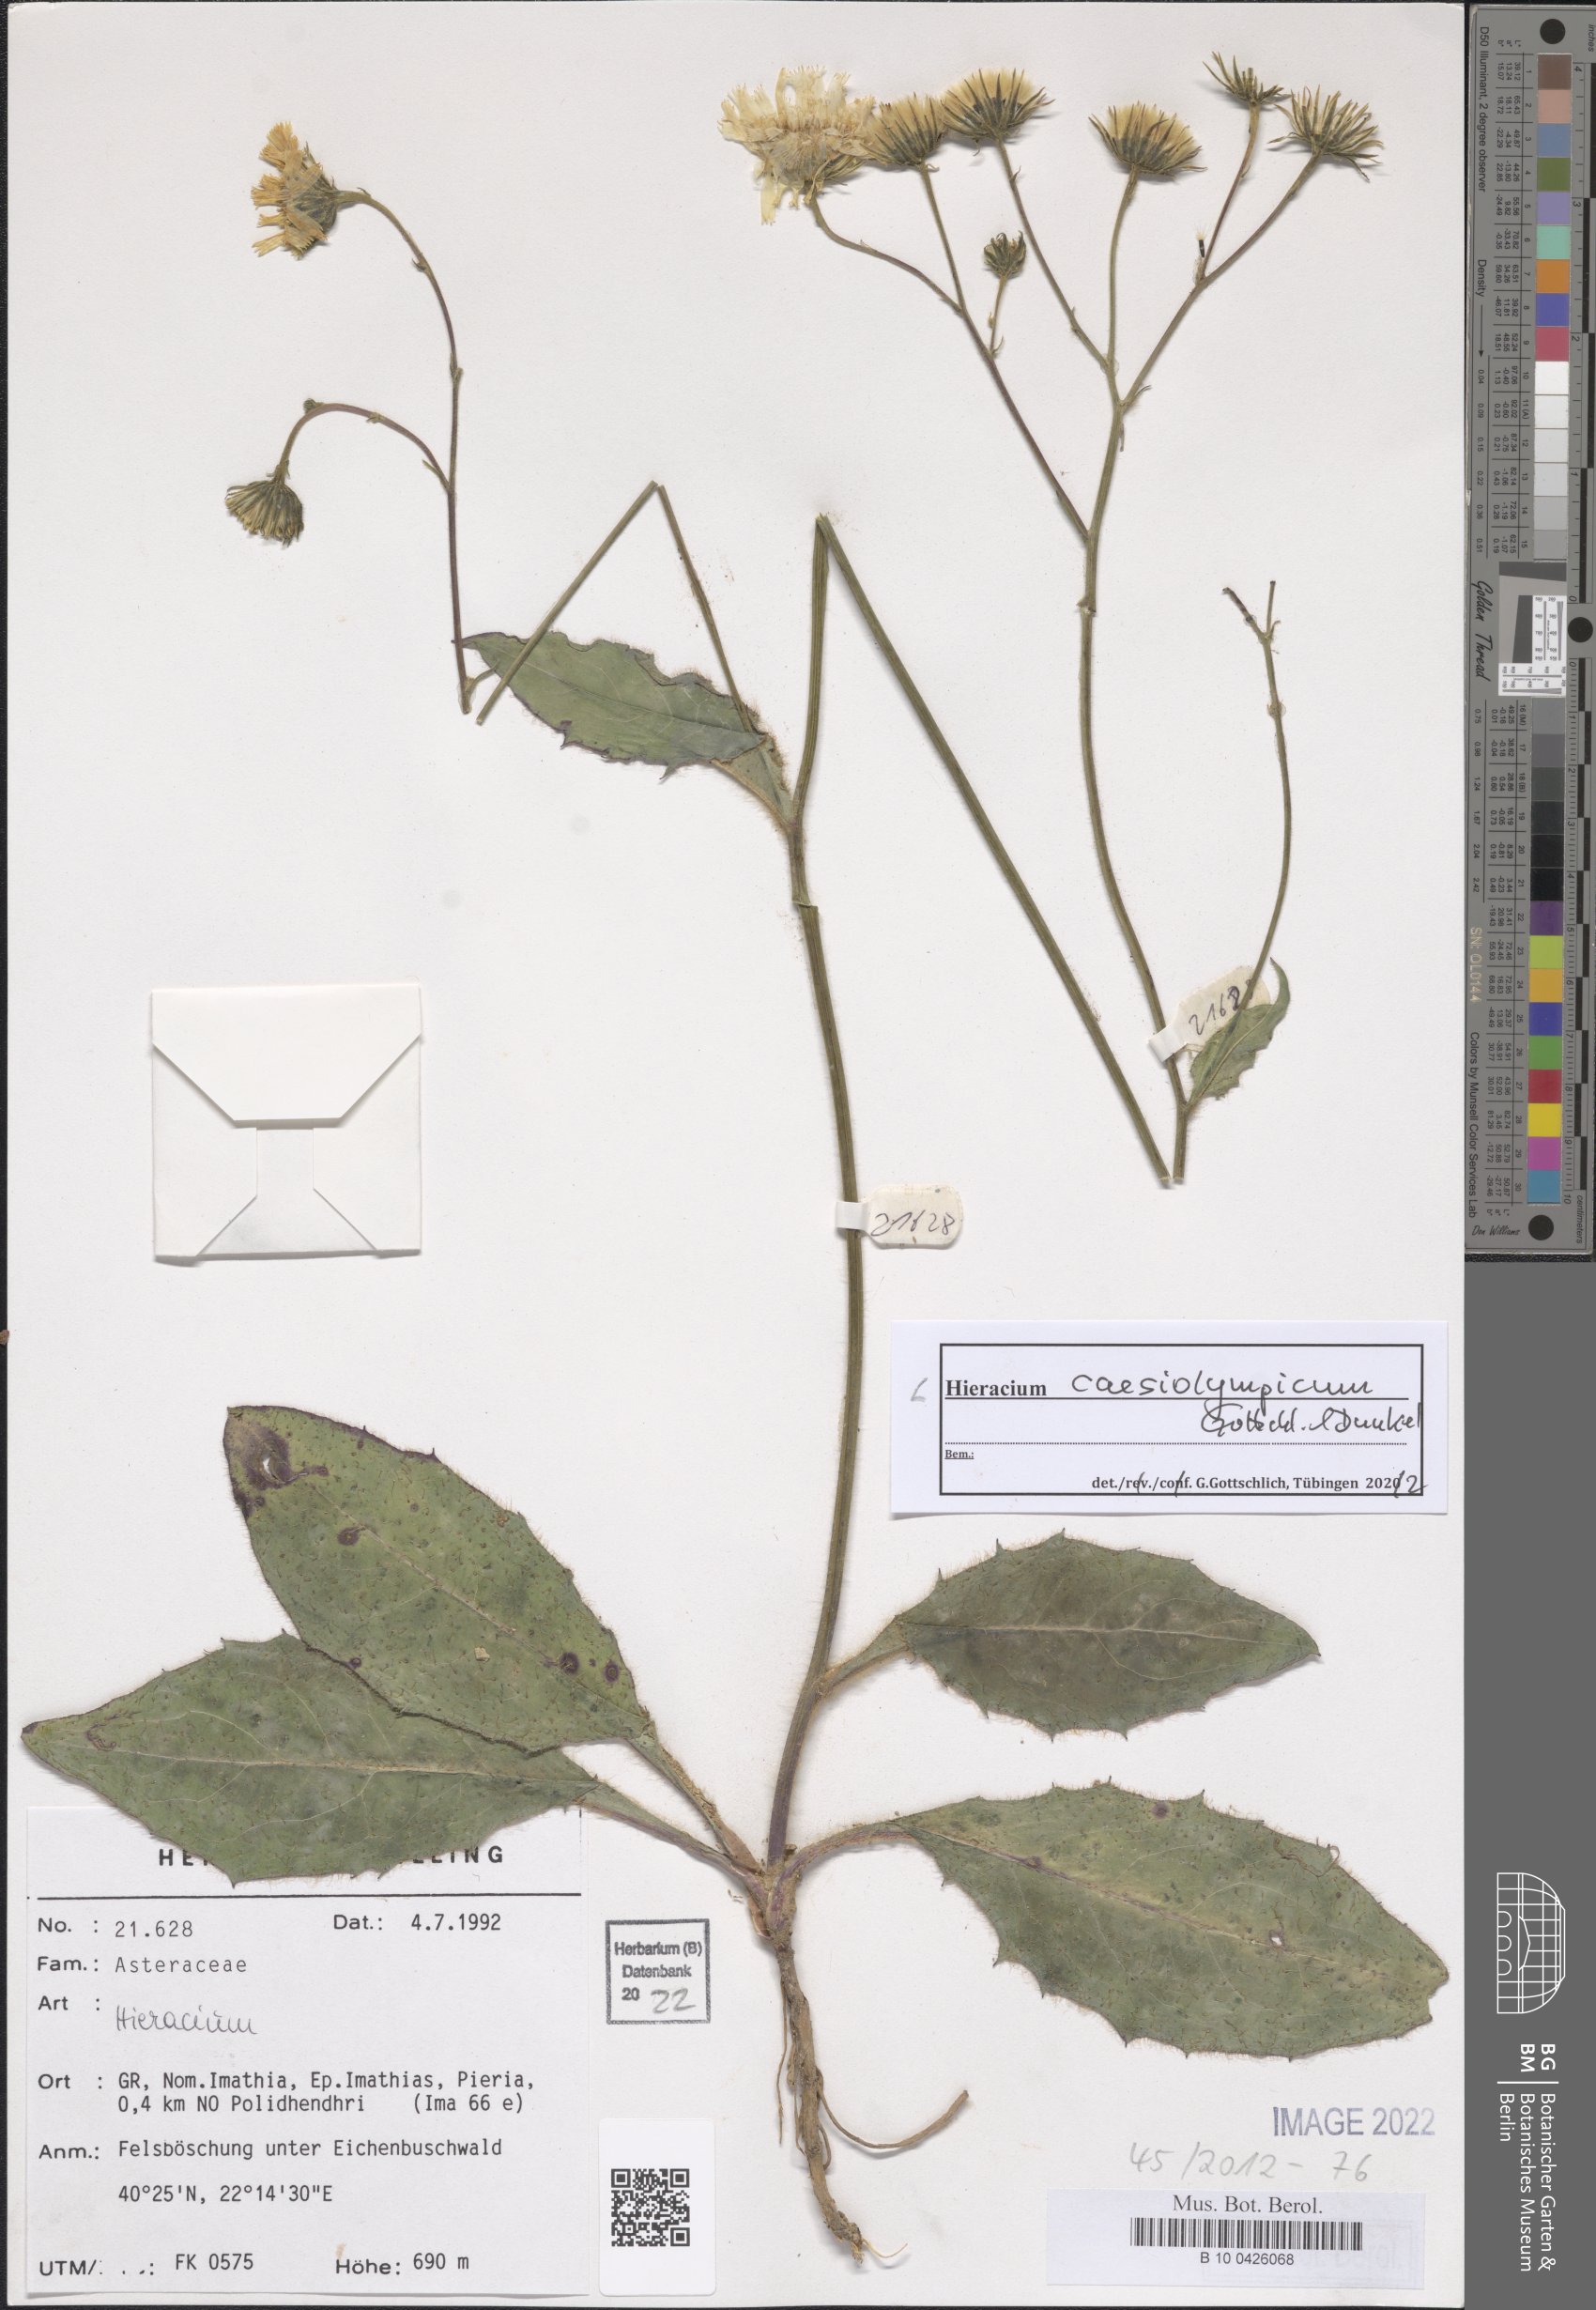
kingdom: Plantae
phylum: Tracheophyta
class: Magnoliopsida
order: Asterales
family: Asteraceae
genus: Hieracium
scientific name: Hieracium caesiolympicum
